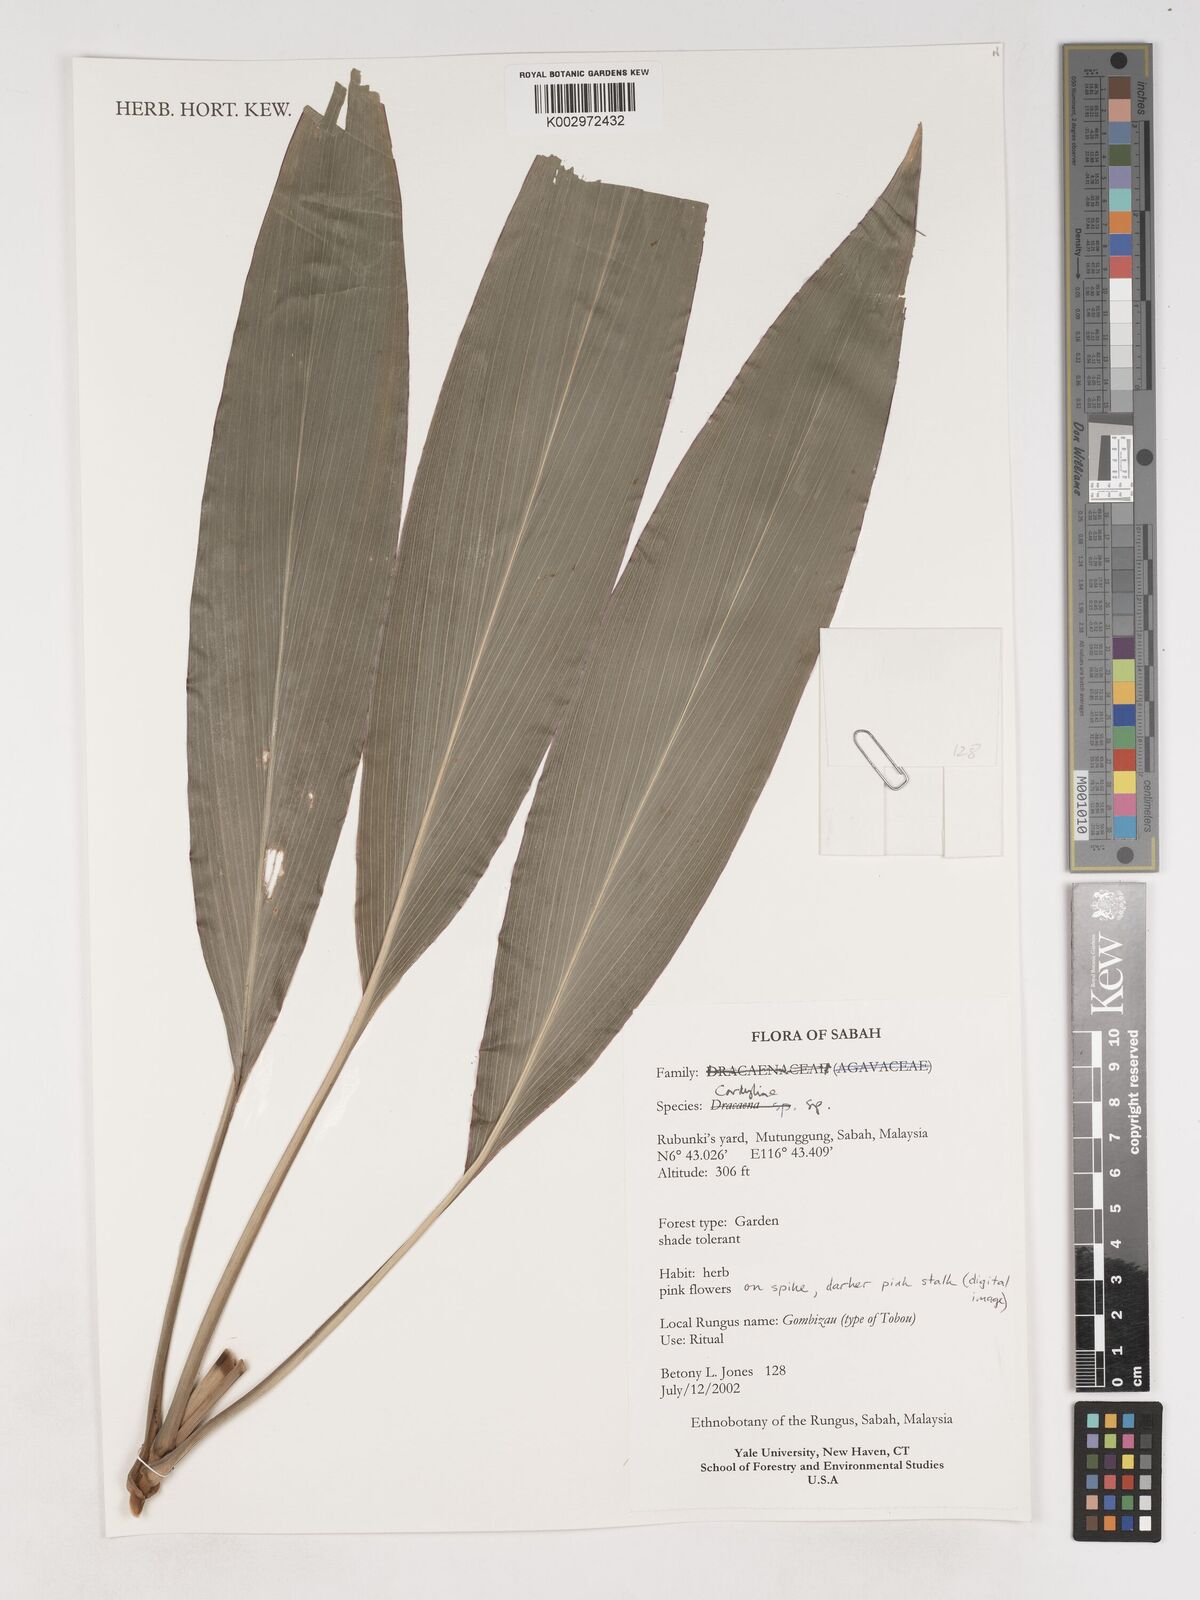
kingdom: Plantae
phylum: Tracheophyta
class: Liliopsida
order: Asparagales
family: Asparagaceae
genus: Cordyline
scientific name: Cordyline
